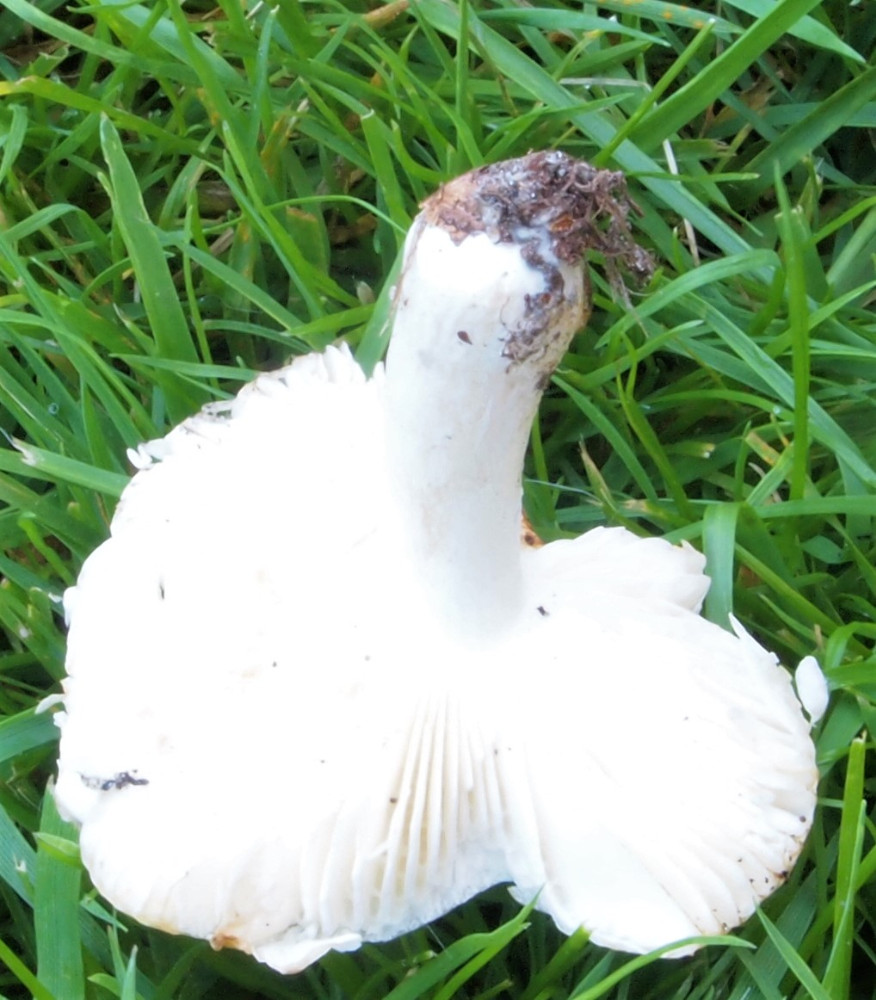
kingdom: Fungi
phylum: Basidiomycota
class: Agaricomycetes
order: Russulales
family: Russulaceae
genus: Russula
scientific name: Russula solaris
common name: sol-skørhat
